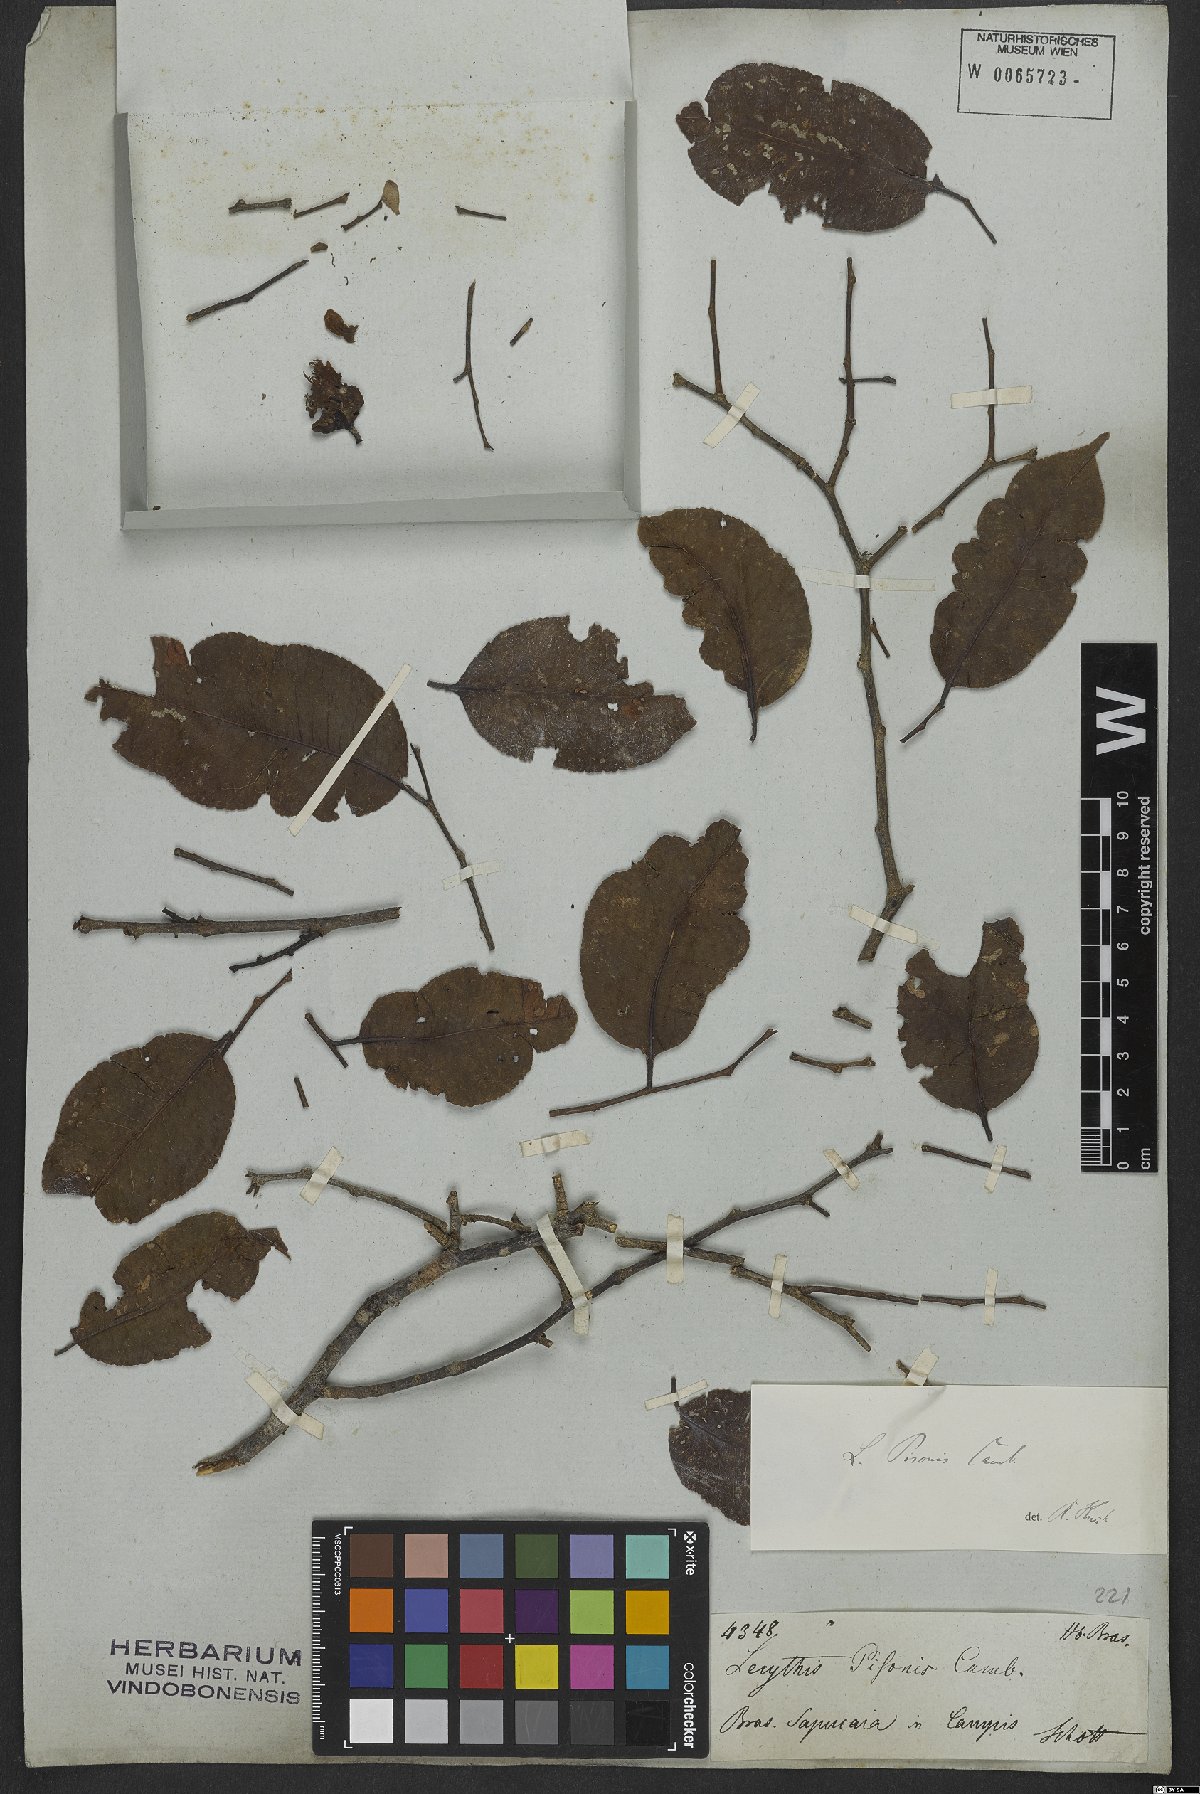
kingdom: Plantae
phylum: Tracheophyta
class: Magnoliopsida
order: Ericales
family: Lecythidaceae
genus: Lecythis
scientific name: Lecythis pisonis
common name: Paradise-nut
